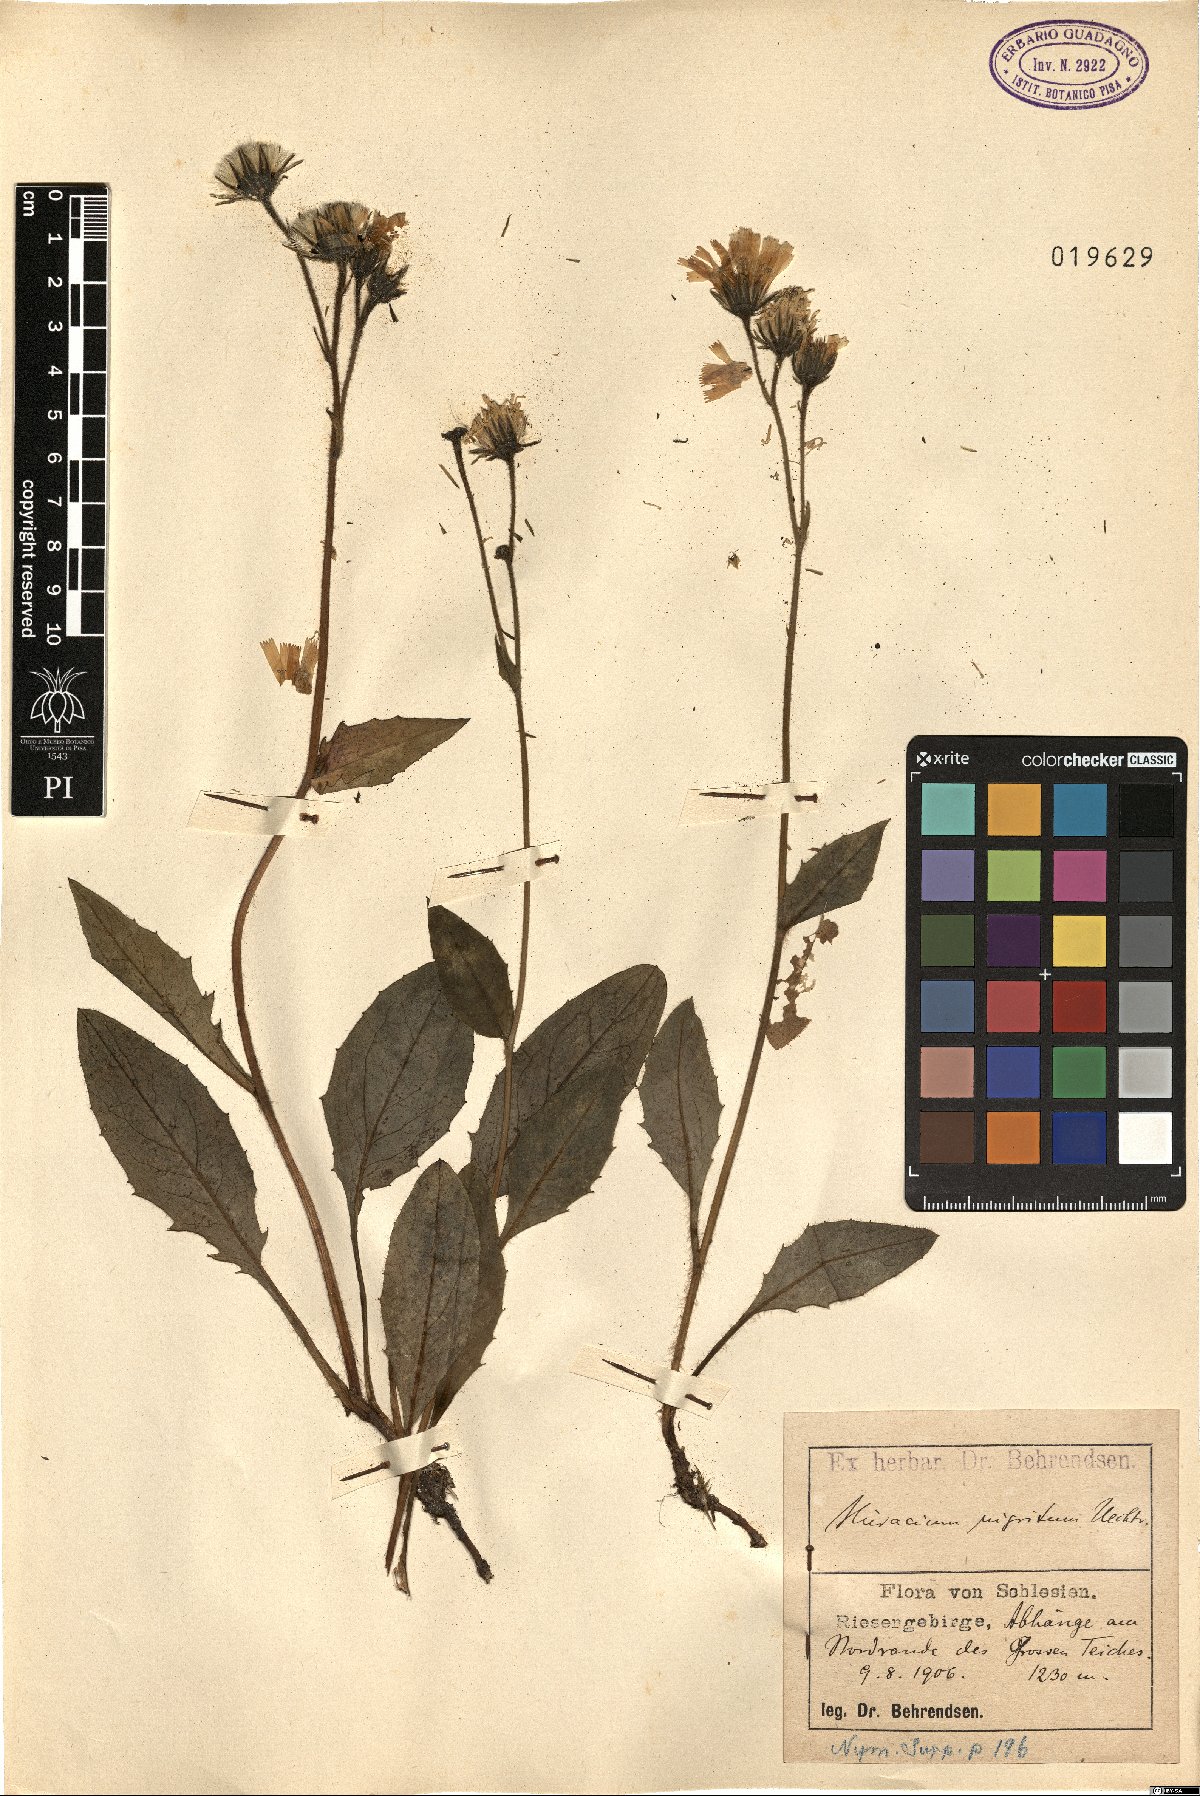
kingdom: Plantae
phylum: Tracheophyta
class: Magnoliopsida
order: Asterales
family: Asteraceae
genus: Hieracium
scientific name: Hieracium nigritum
